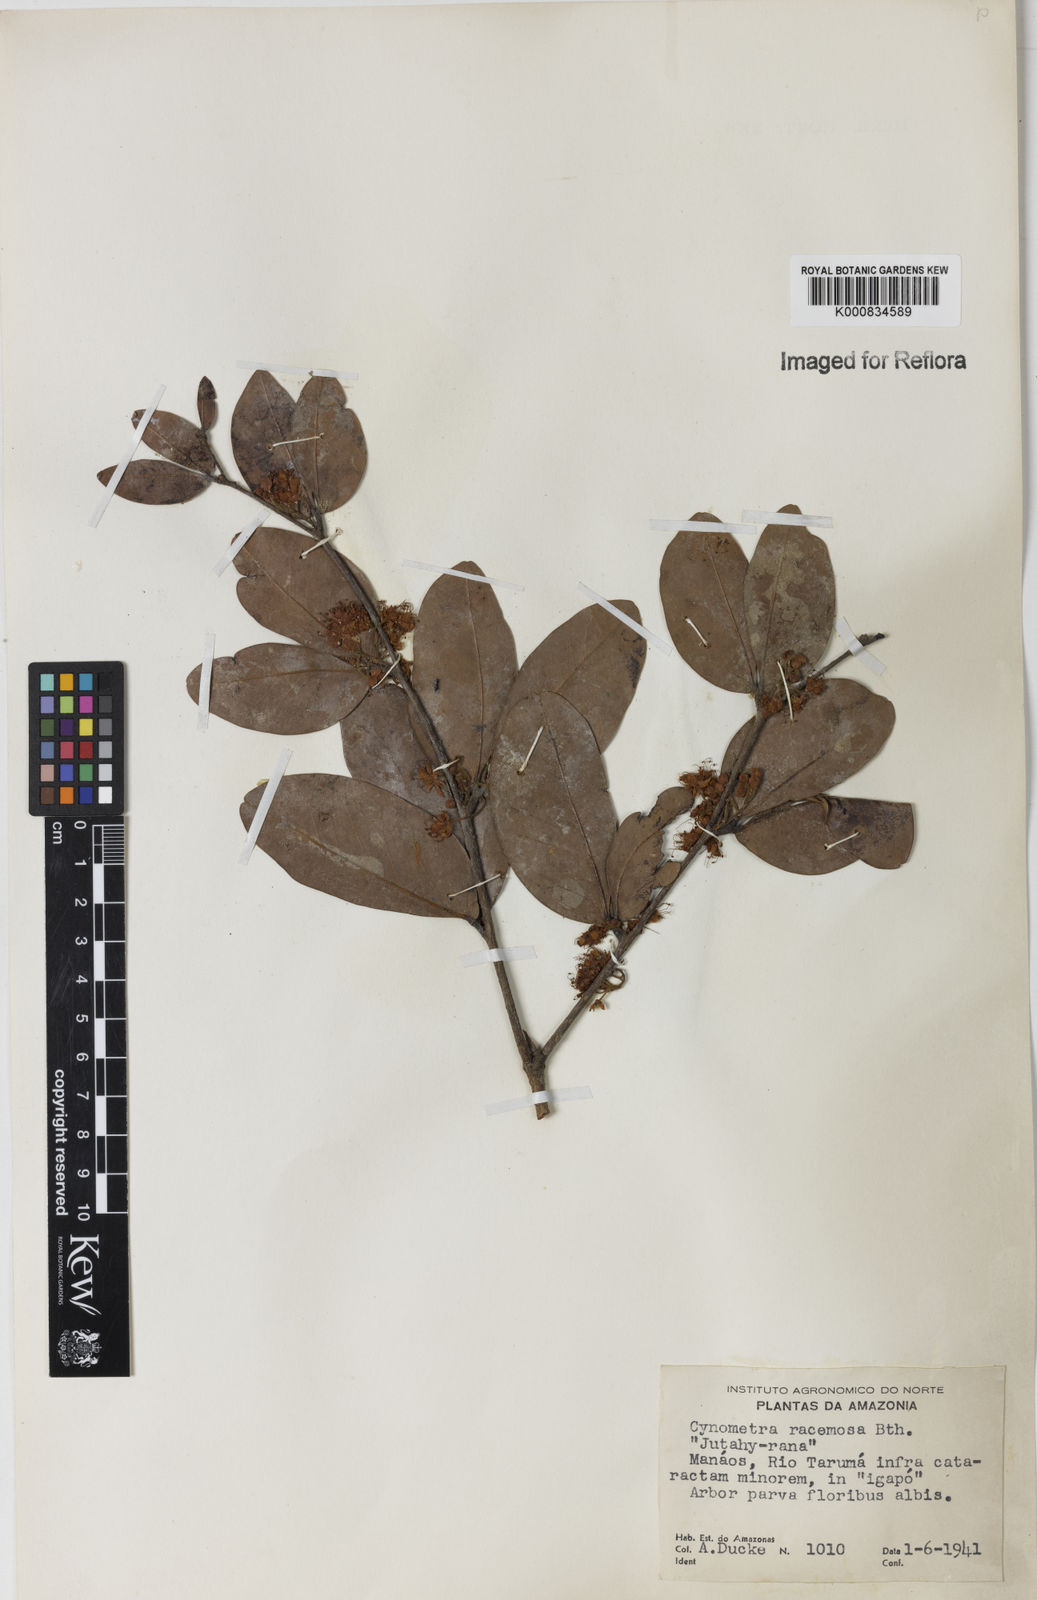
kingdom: Plantae
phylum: Tracheophyta
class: Magnoliopsida
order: Fabales
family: Fabaceae
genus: Cynometra
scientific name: Cynometra phaselocarpa
